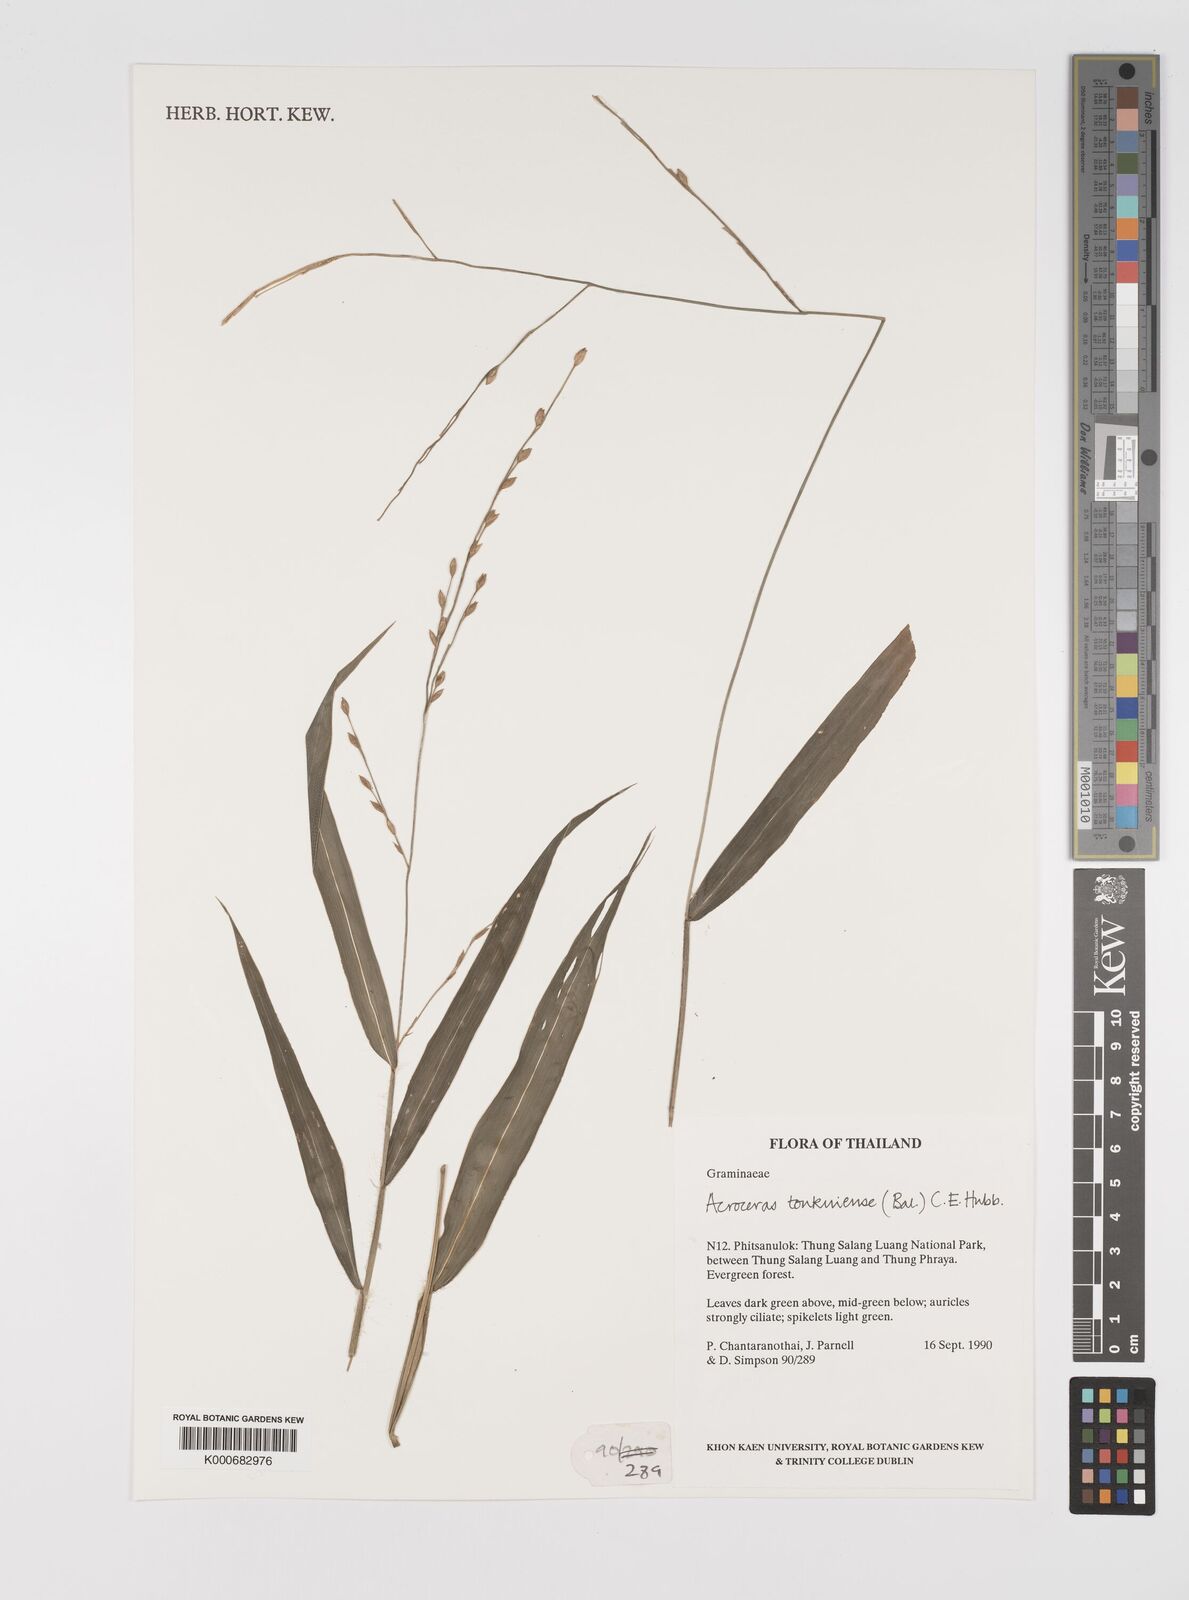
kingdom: Plantae
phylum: Tracheophyta
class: Liliopsida
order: Poales
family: Poaceae
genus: Acroceras
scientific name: Acroceras
